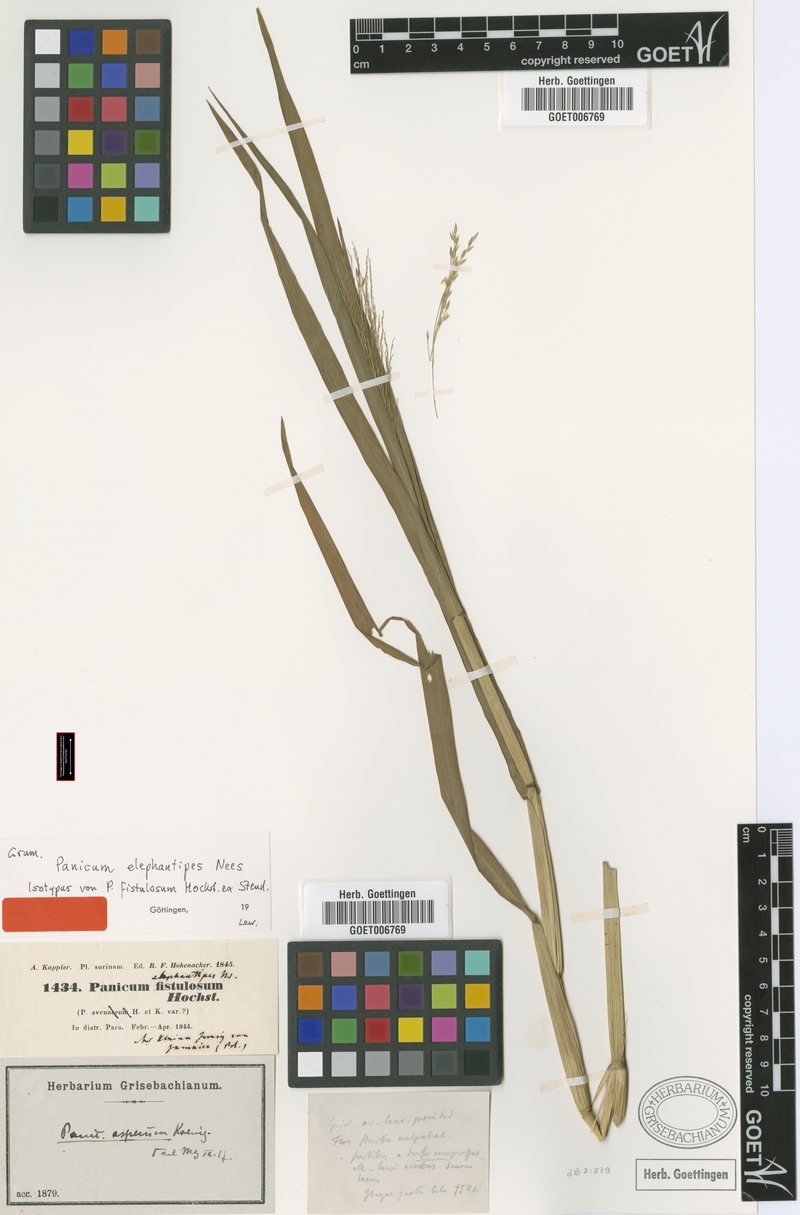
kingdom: Plantae
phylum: Tracheophyta
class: Liliopsida
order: Poales
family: Poaceae
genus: Louisiella
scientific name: Louisiella elephantipes
